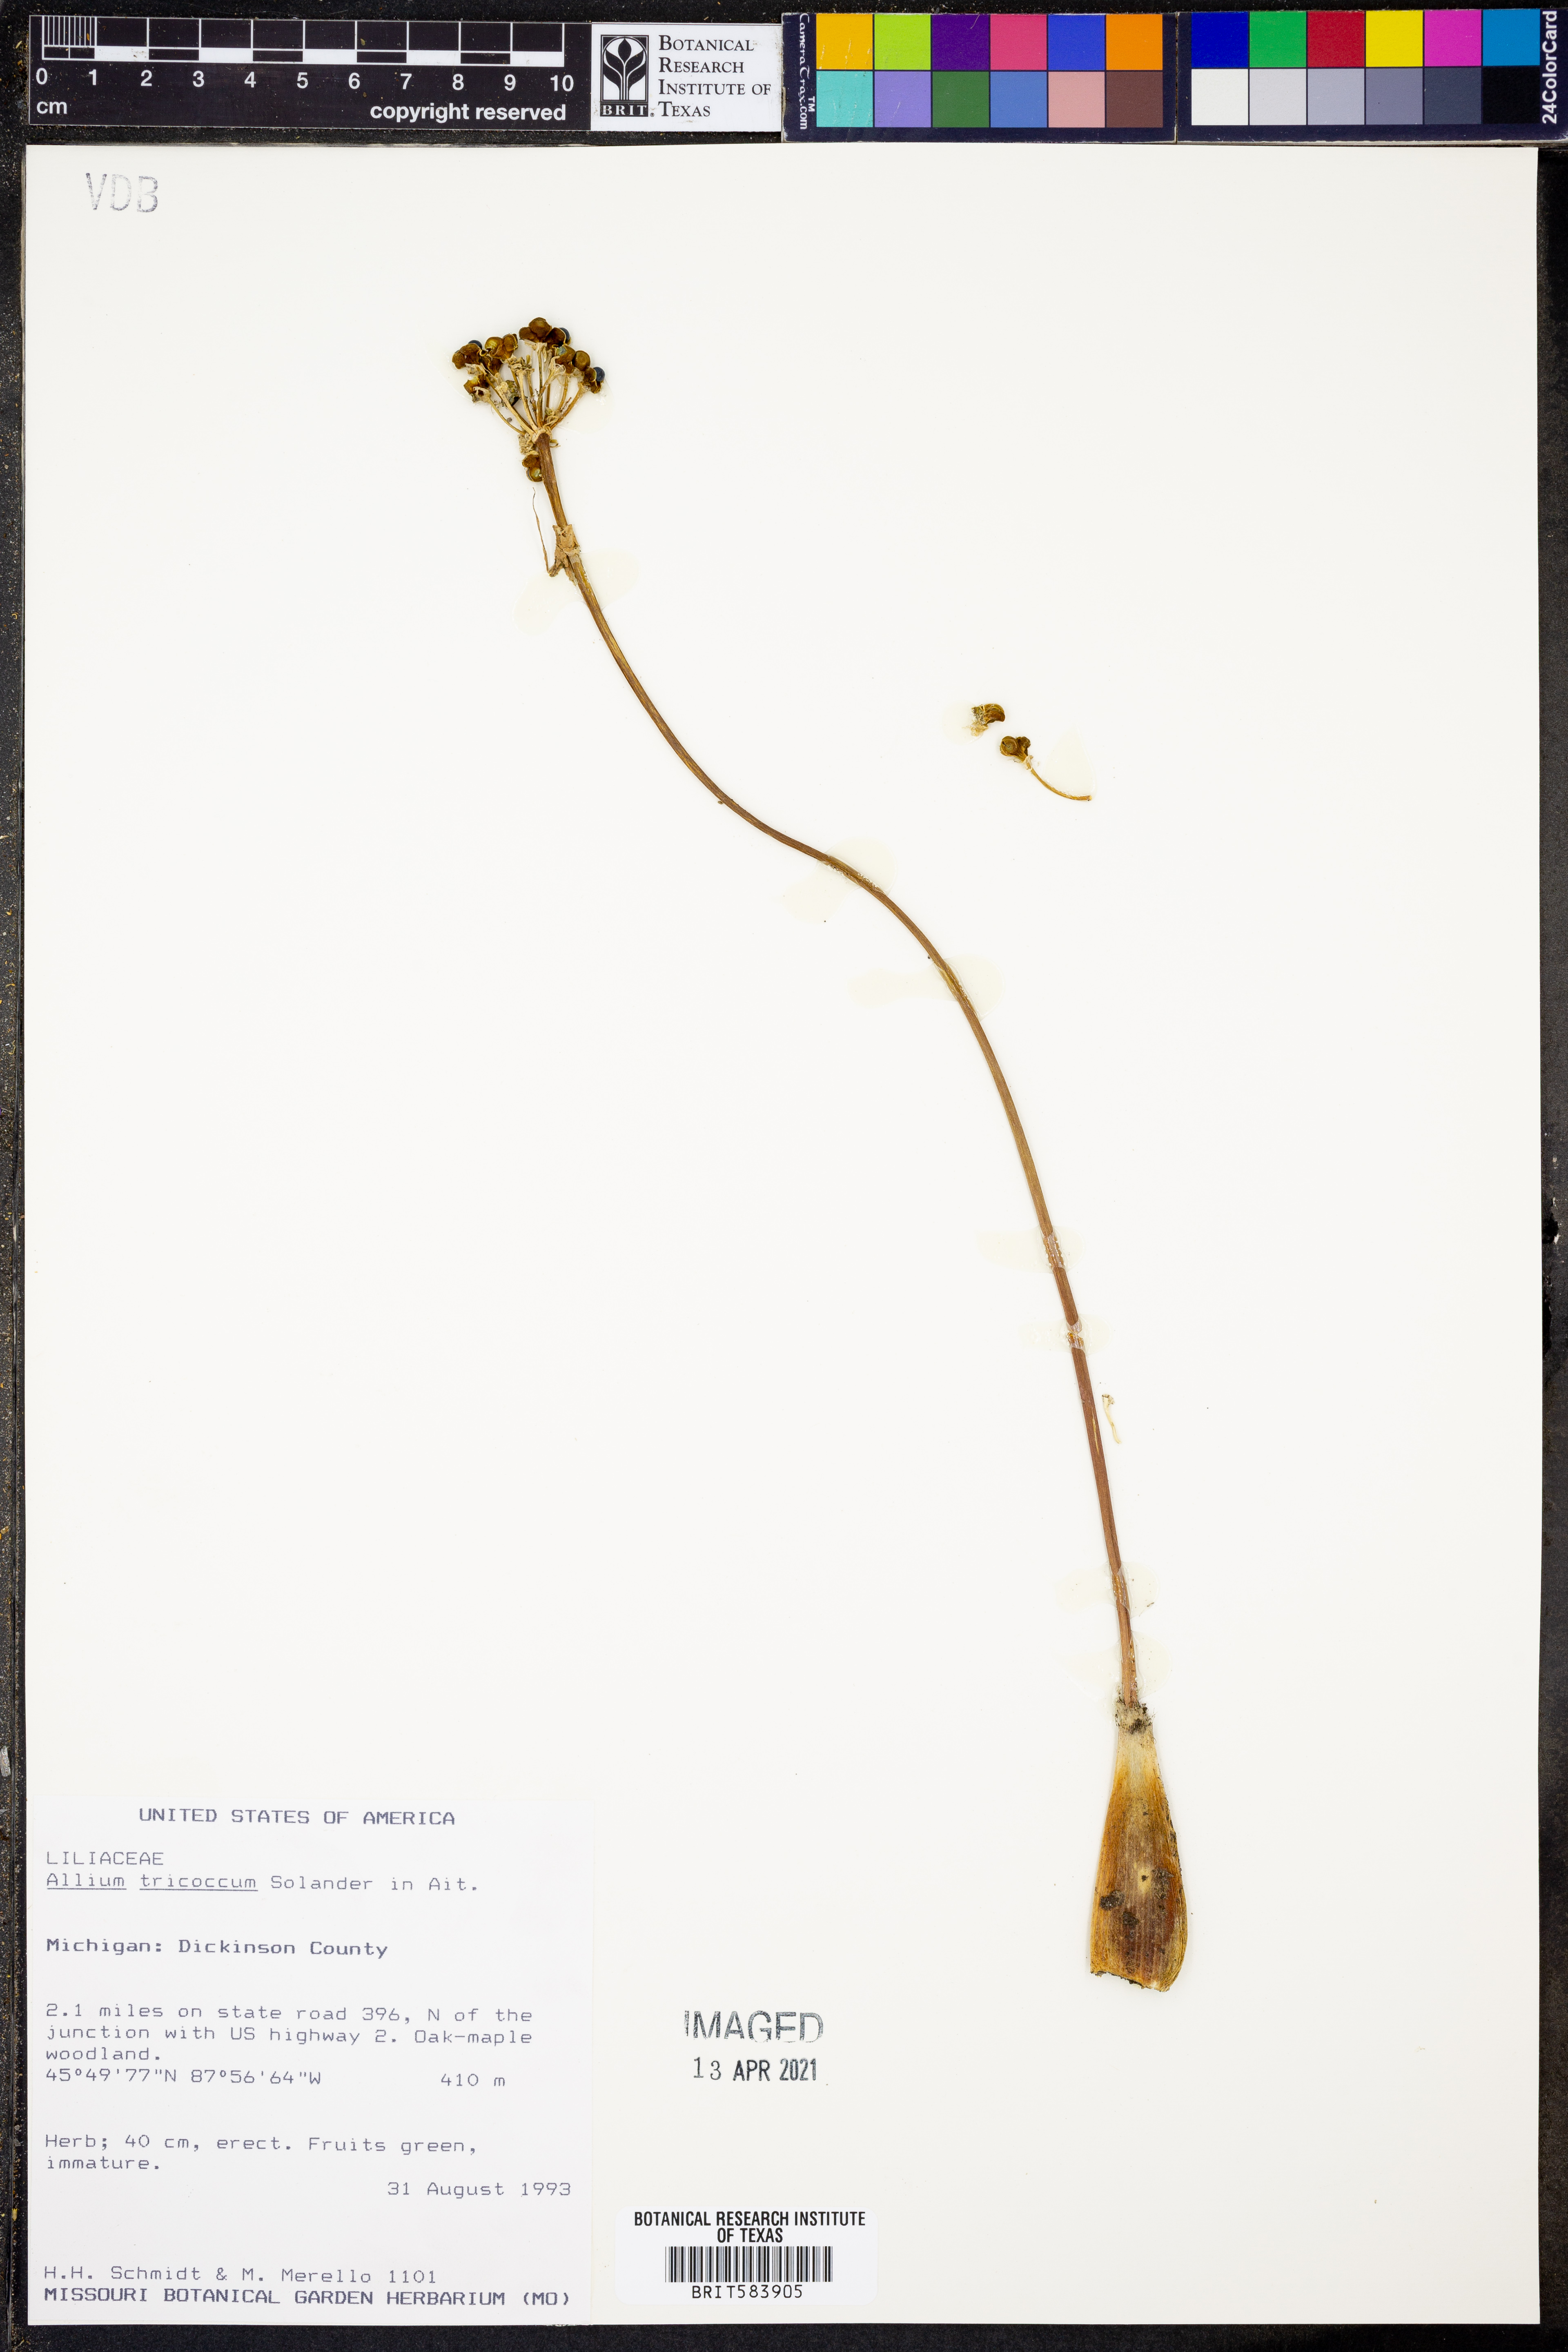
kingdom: Plantae
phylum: Tracheophyta
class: Liliopsida
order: Asparagales
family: Amaryllidaceae
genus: Allium
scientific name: Allium tricoccum
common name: Ramp
